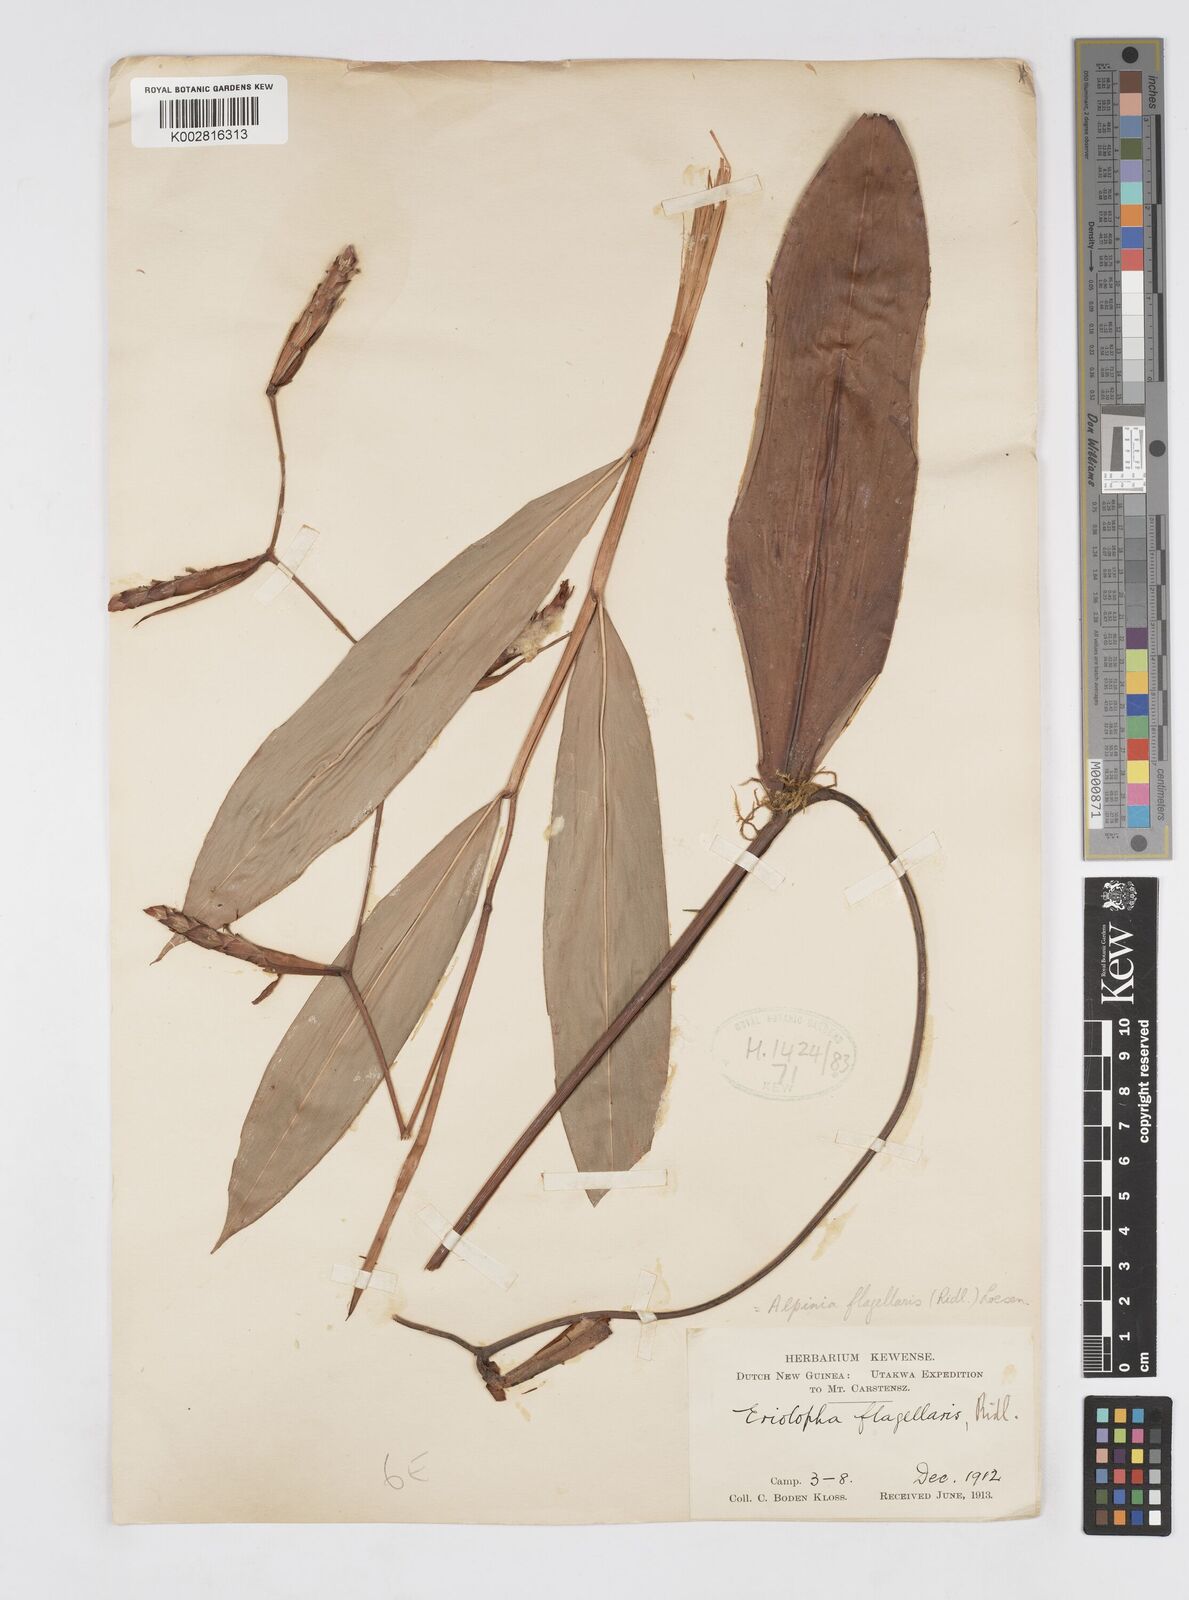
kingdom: Plantae
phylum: Tracheophyta
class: Liliopsida
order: Zingiberales
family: Zingiberaceae
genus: Alpinia
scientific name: Alpinia flagellaris
